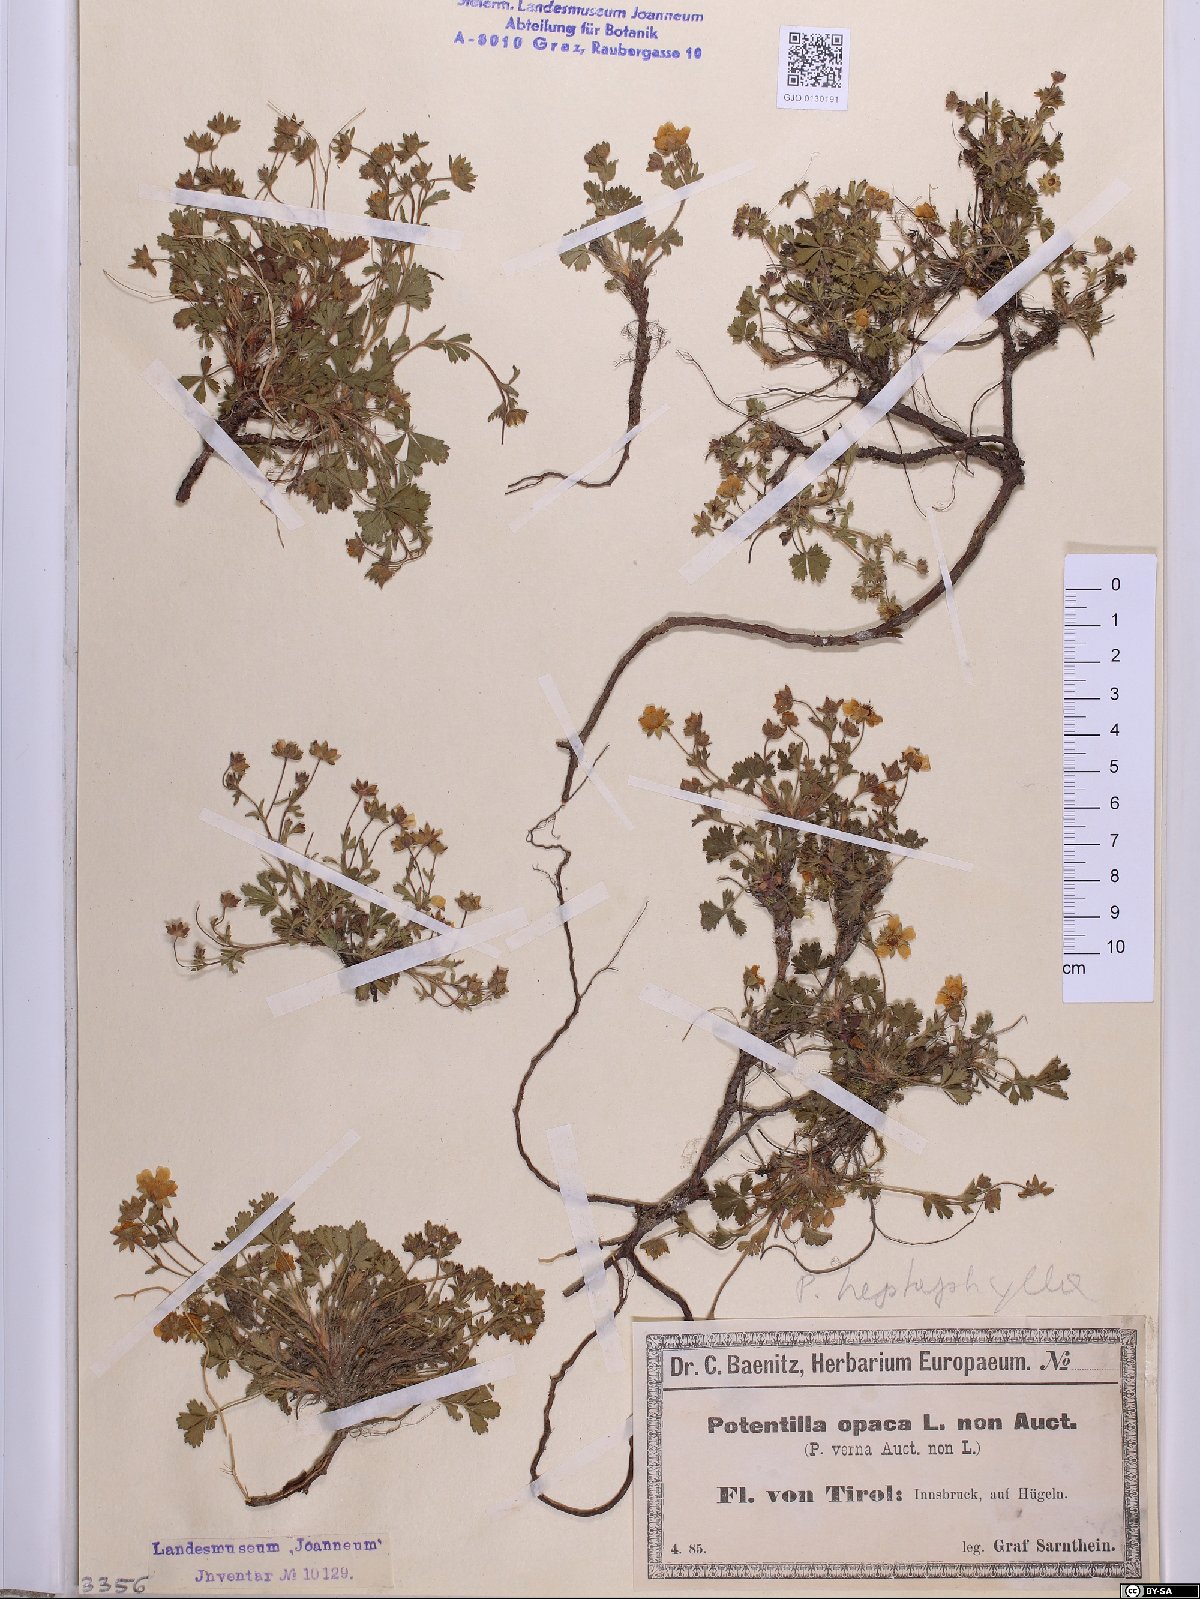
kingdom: Plantae
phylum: Tracheophyta
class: Magnoliopsida
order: Rosales
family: Rosaceae
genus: Potentilla
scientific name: Potentilla
